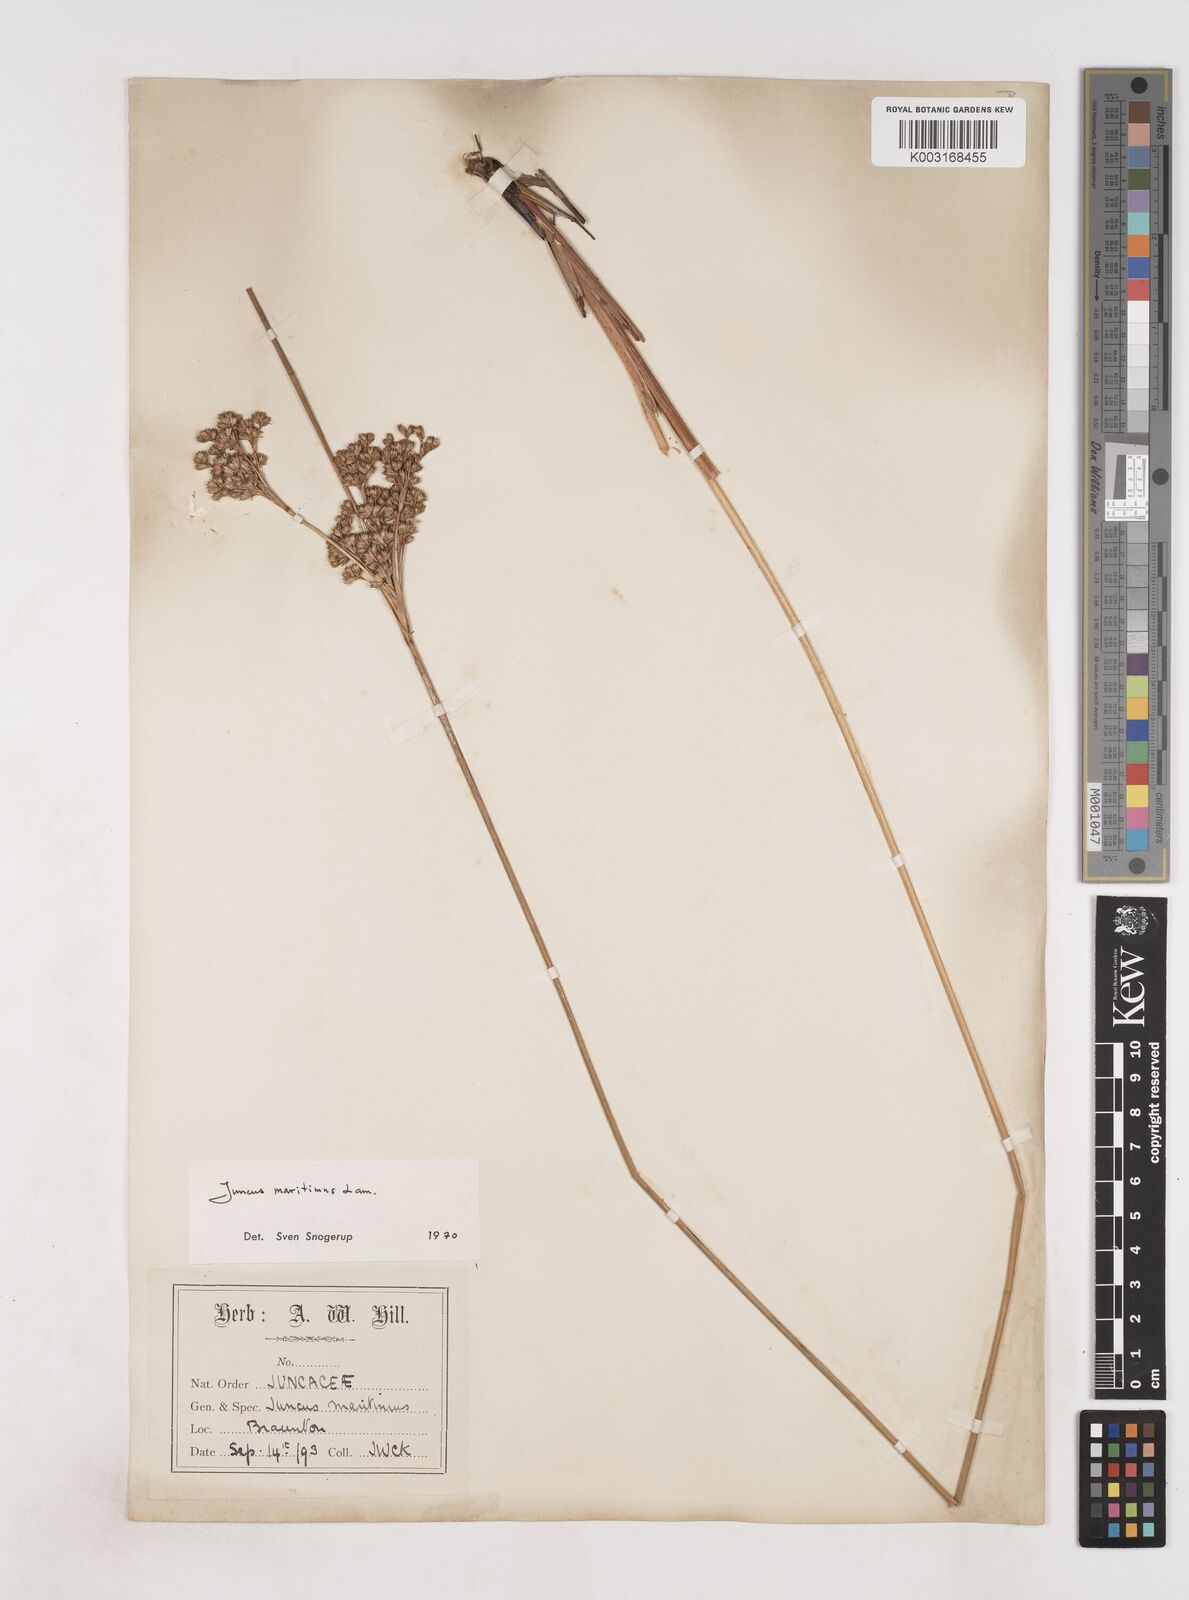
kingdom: Plantae
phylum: Tracheophyta
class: Liliopsida
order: Poales
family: Juncaceae
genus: Juncus
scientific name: Juncus maritimus
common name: Sea rush
